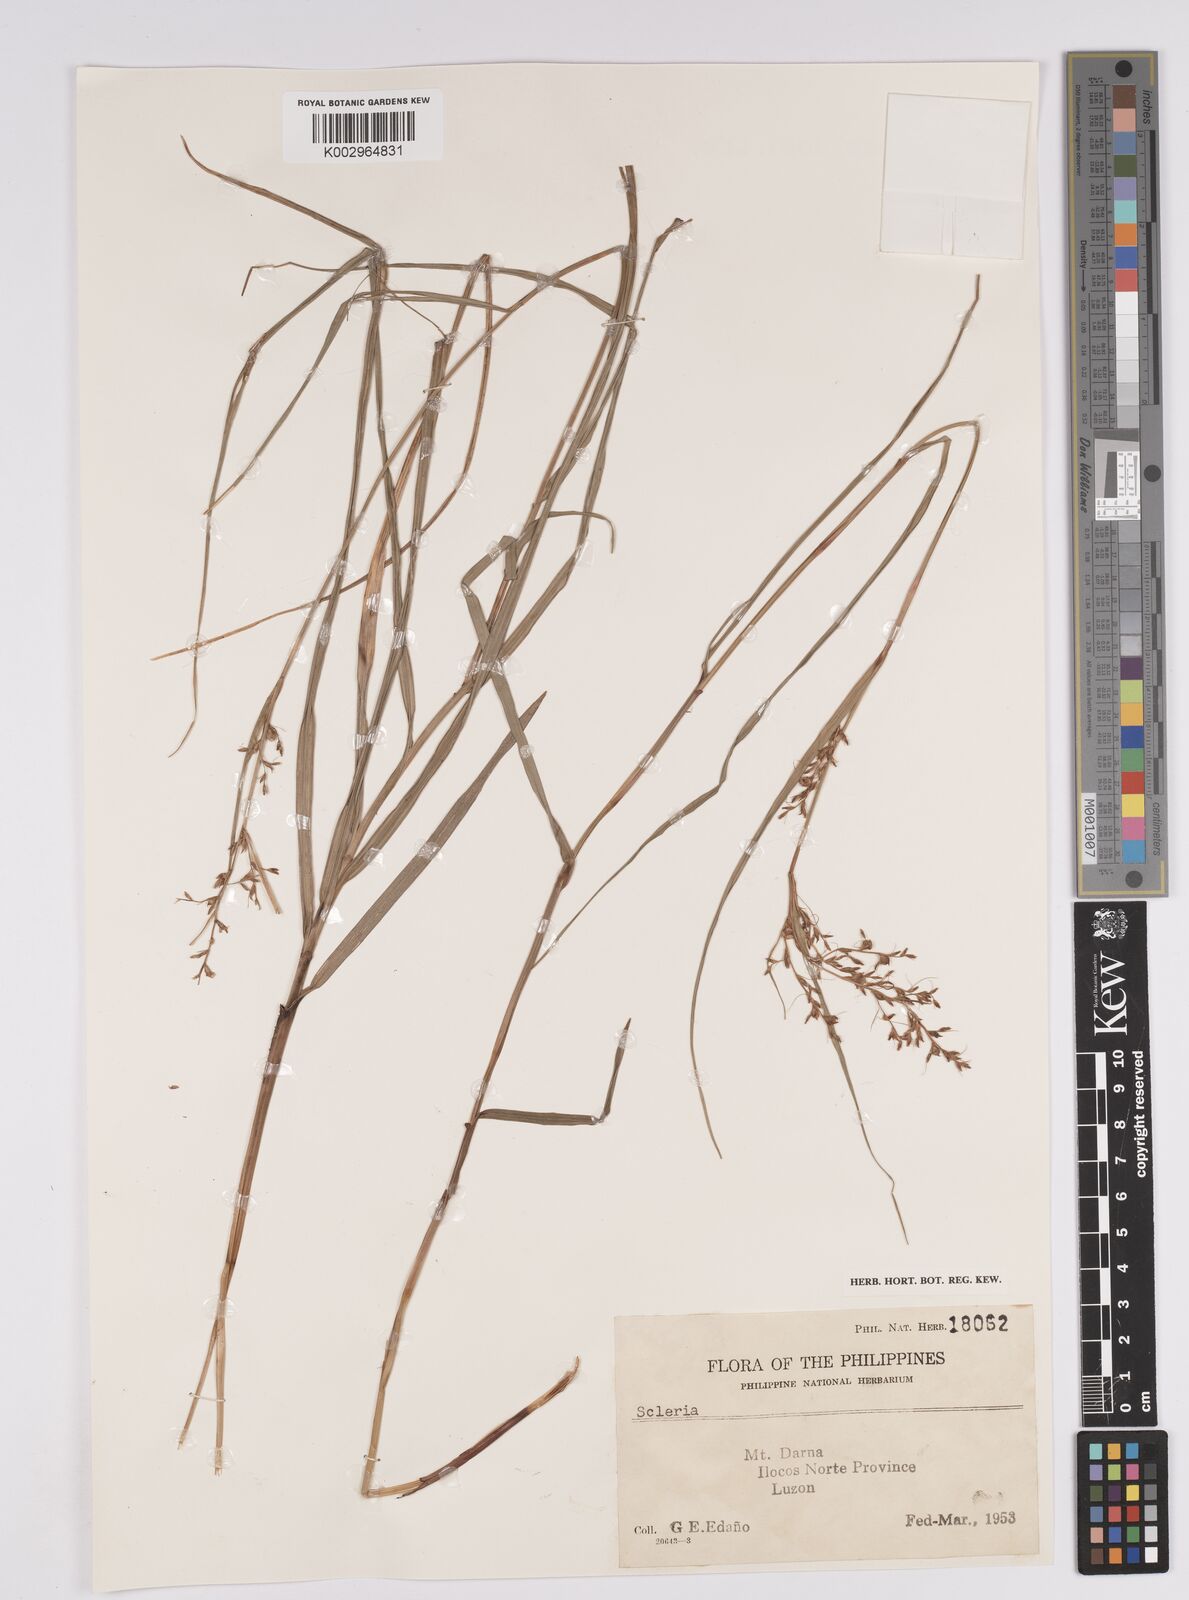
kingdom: Plantae
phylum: Tracheophyta
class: Liliopsida
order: Poales
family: Cyperaceae
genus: Scleria
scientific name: Scleria
